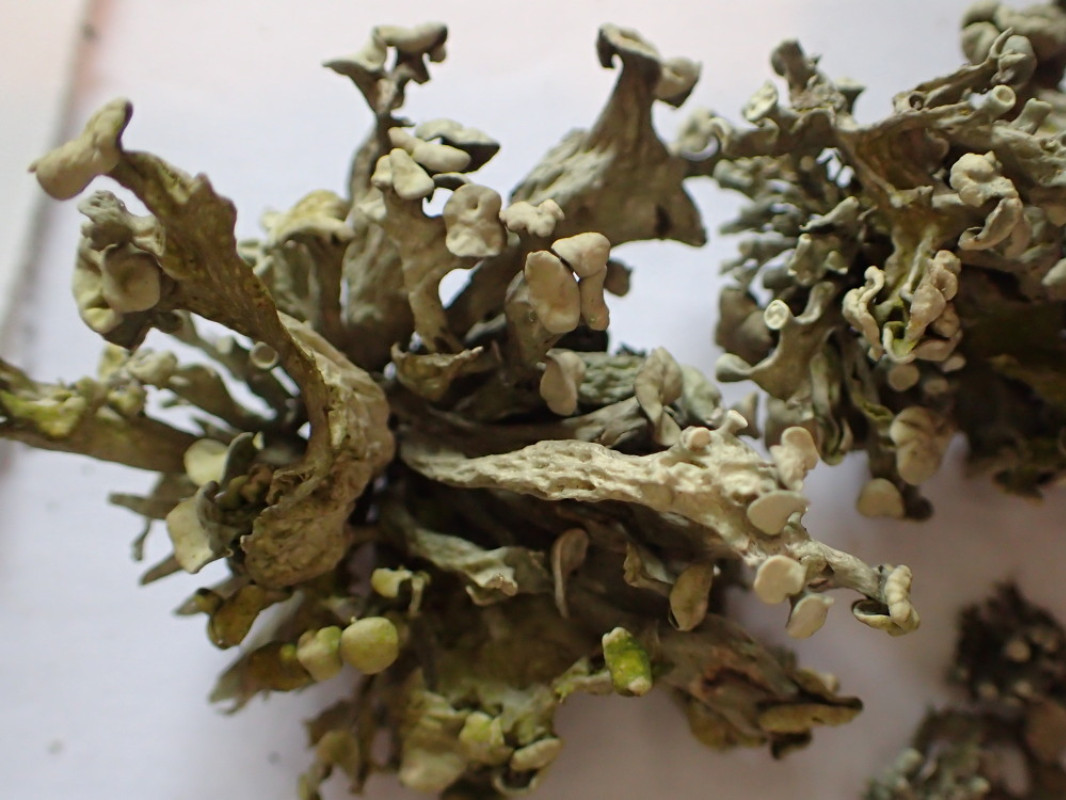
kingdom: Fungi
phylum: Ascomycota
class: Lecanoromycetes
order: Lecanorales
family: Ramalinaceae
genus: Ramalina
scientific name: Ramalina fastigiata
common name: tue-grenlav
